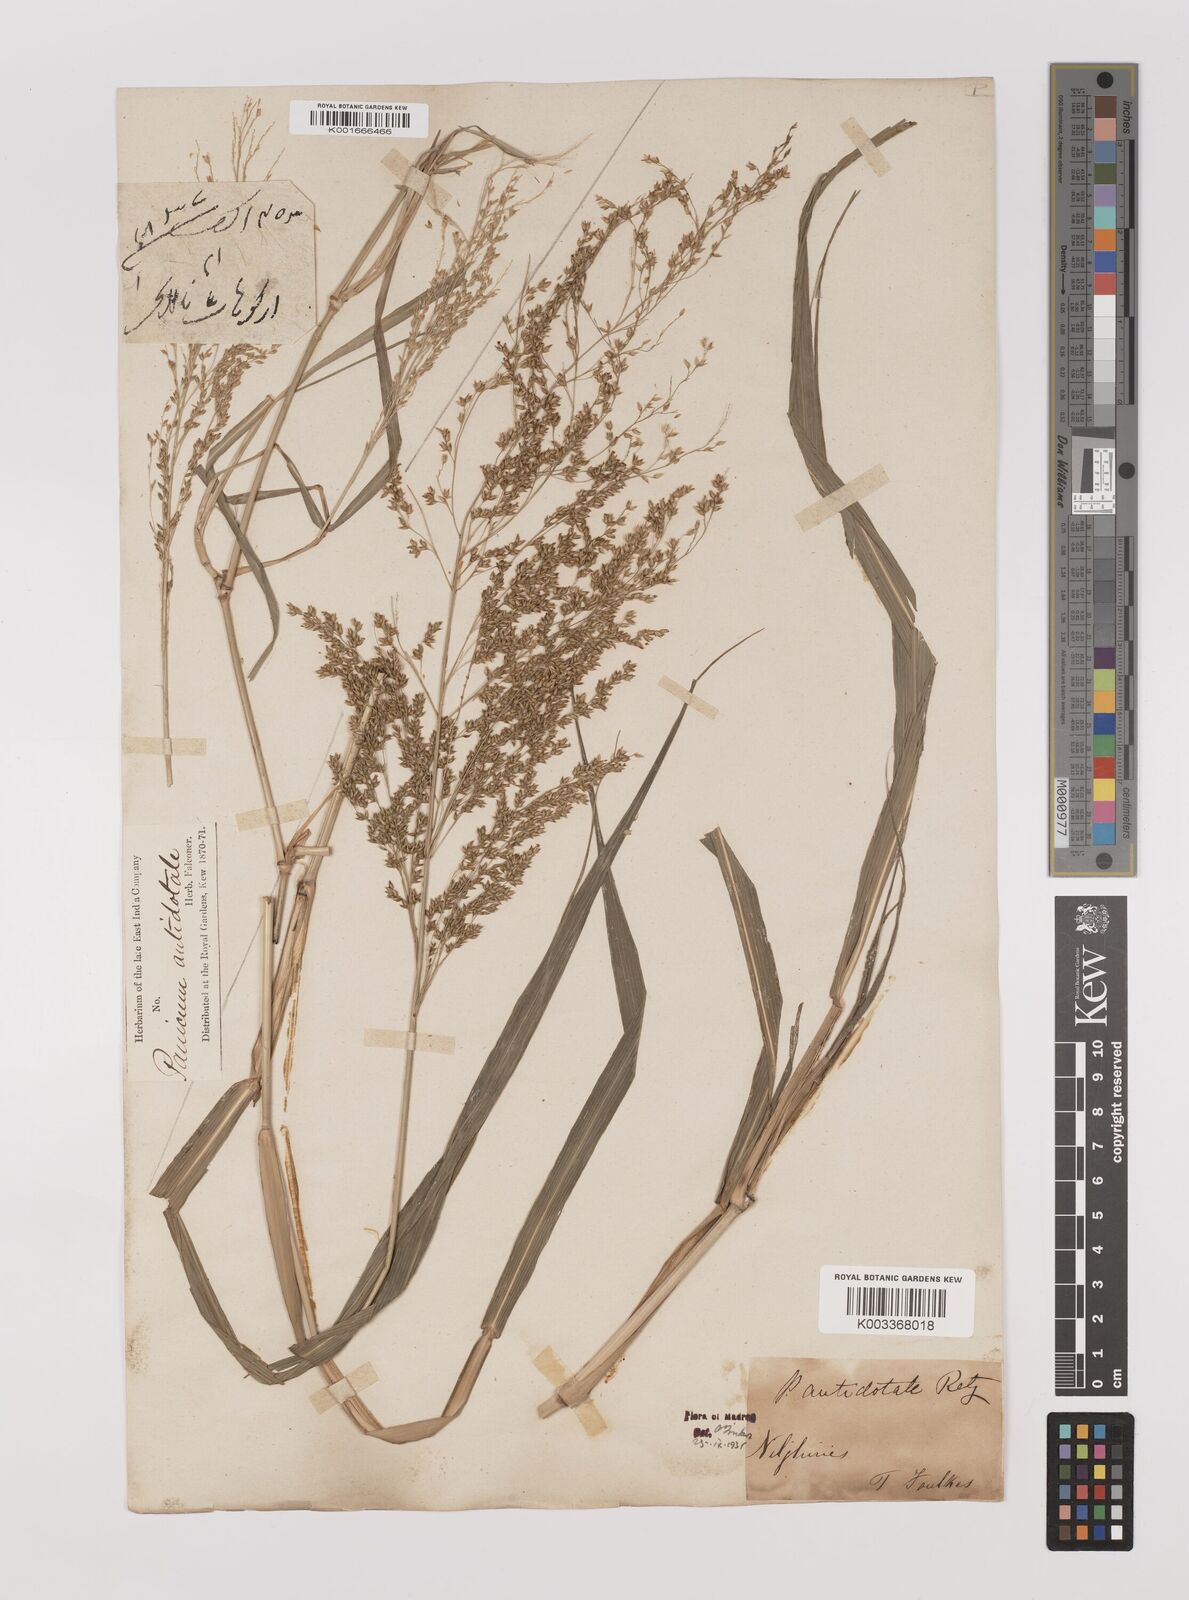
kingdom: Plantae
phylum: Tracheophyta
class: Liliopsida
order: Poales
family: Poaceae
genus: Panicum
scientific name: Panicum antidotale
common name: Blue panicum
